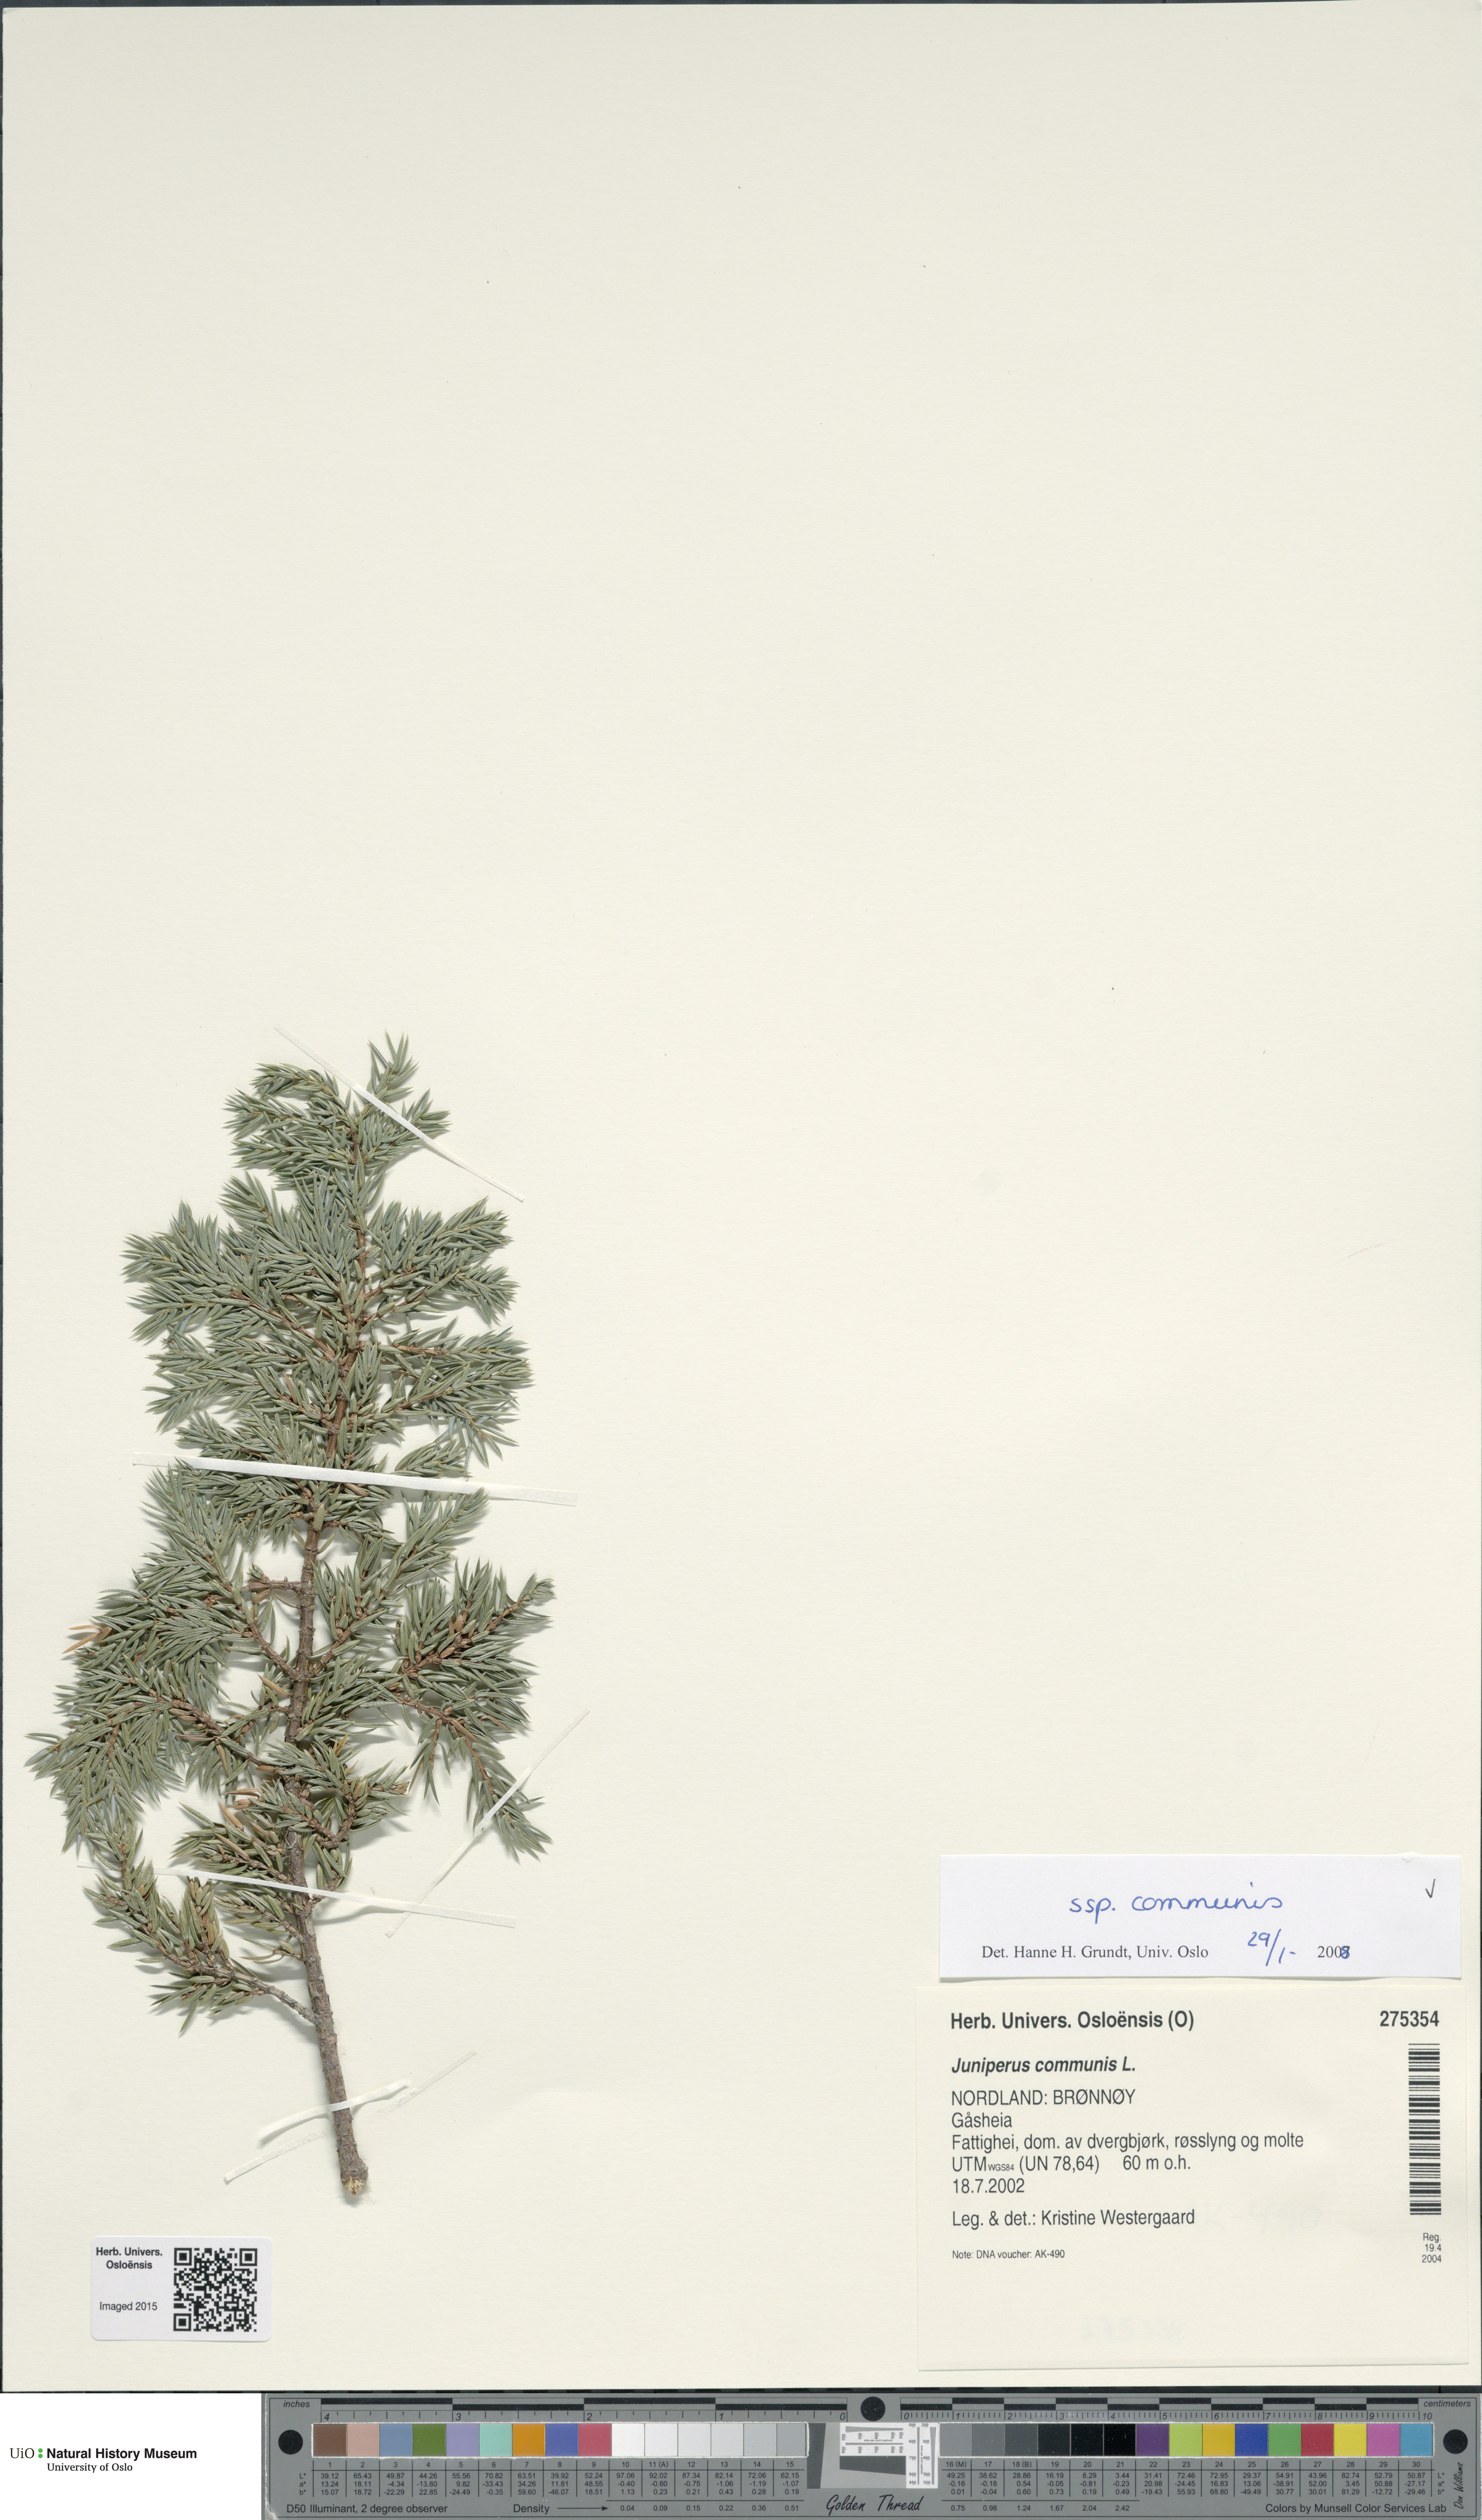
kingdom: Plantae
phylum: Tracheophyta
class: Pinopsida
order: Pinales
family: Cupressaceae
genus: Juniperus
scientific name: Juniperus communis
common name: Common juniper
